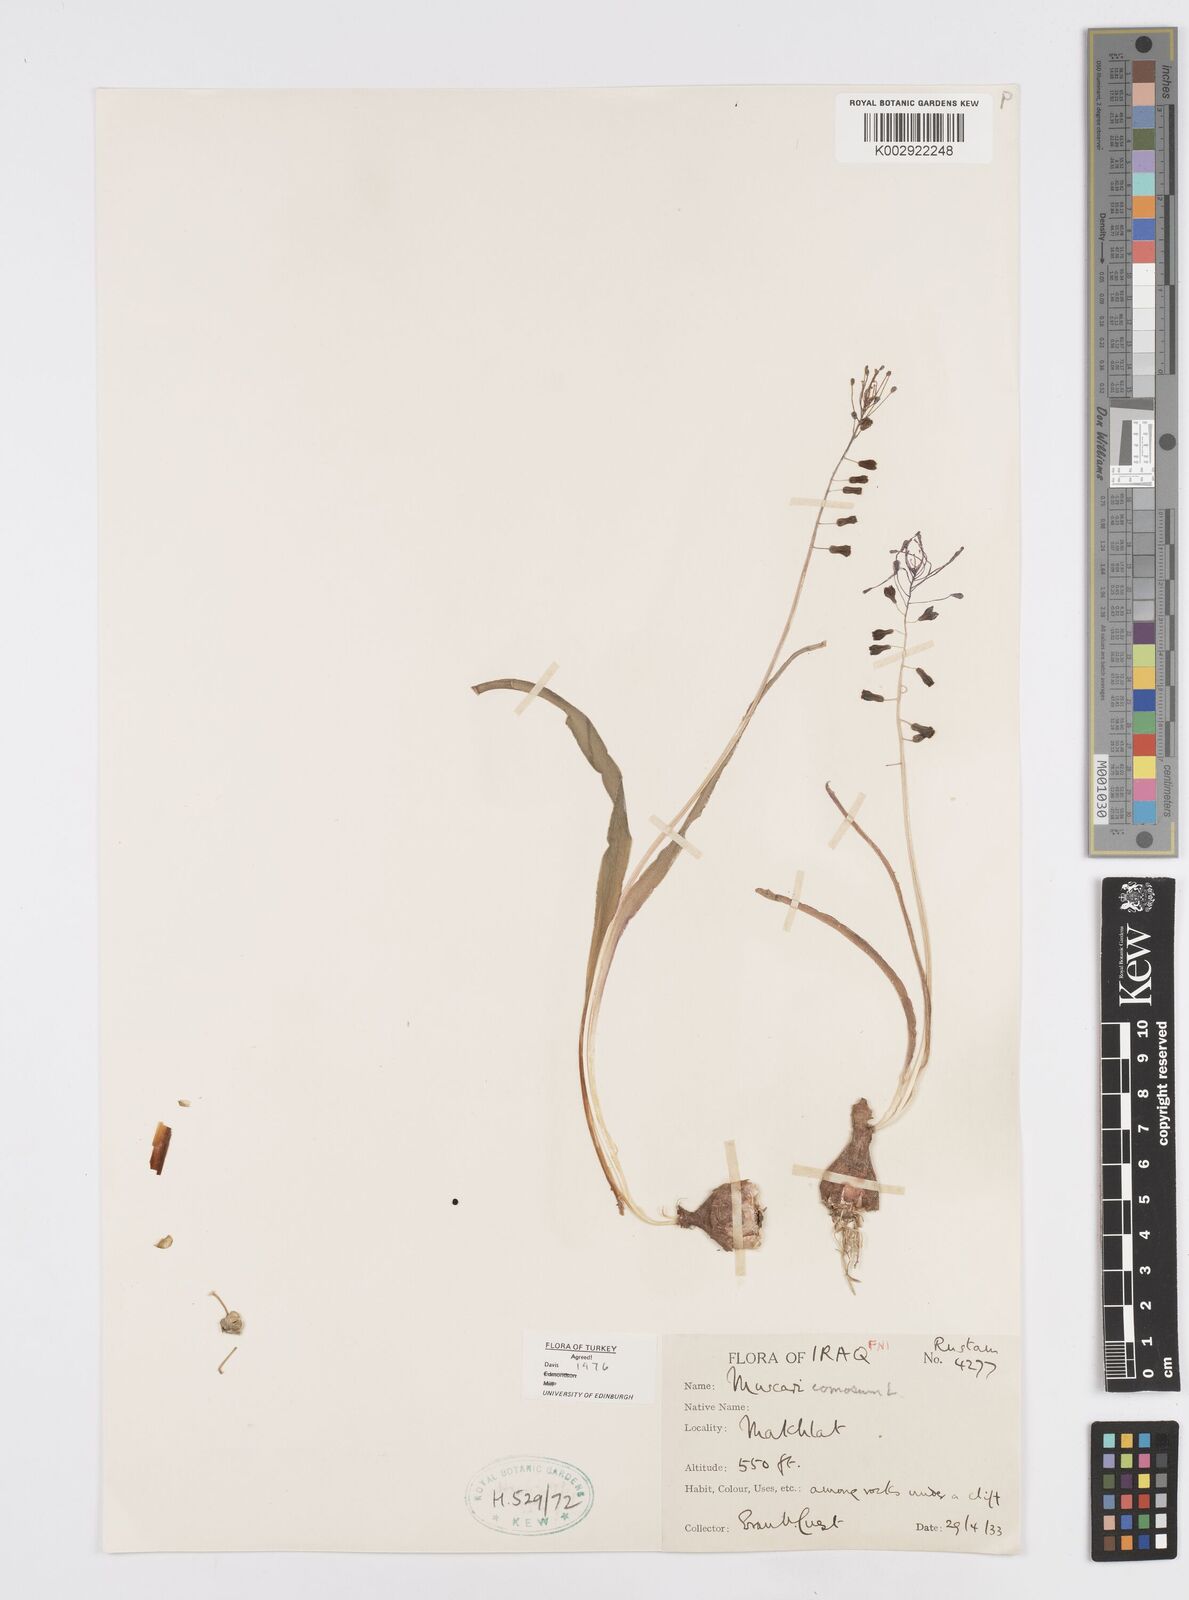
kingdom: Plantae
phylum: Tracheophyta
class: Liliopsida
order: Asparagales
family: Asparagaceae
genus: Muscari
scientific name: Muscari comosum
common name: Tassel hyacinth
